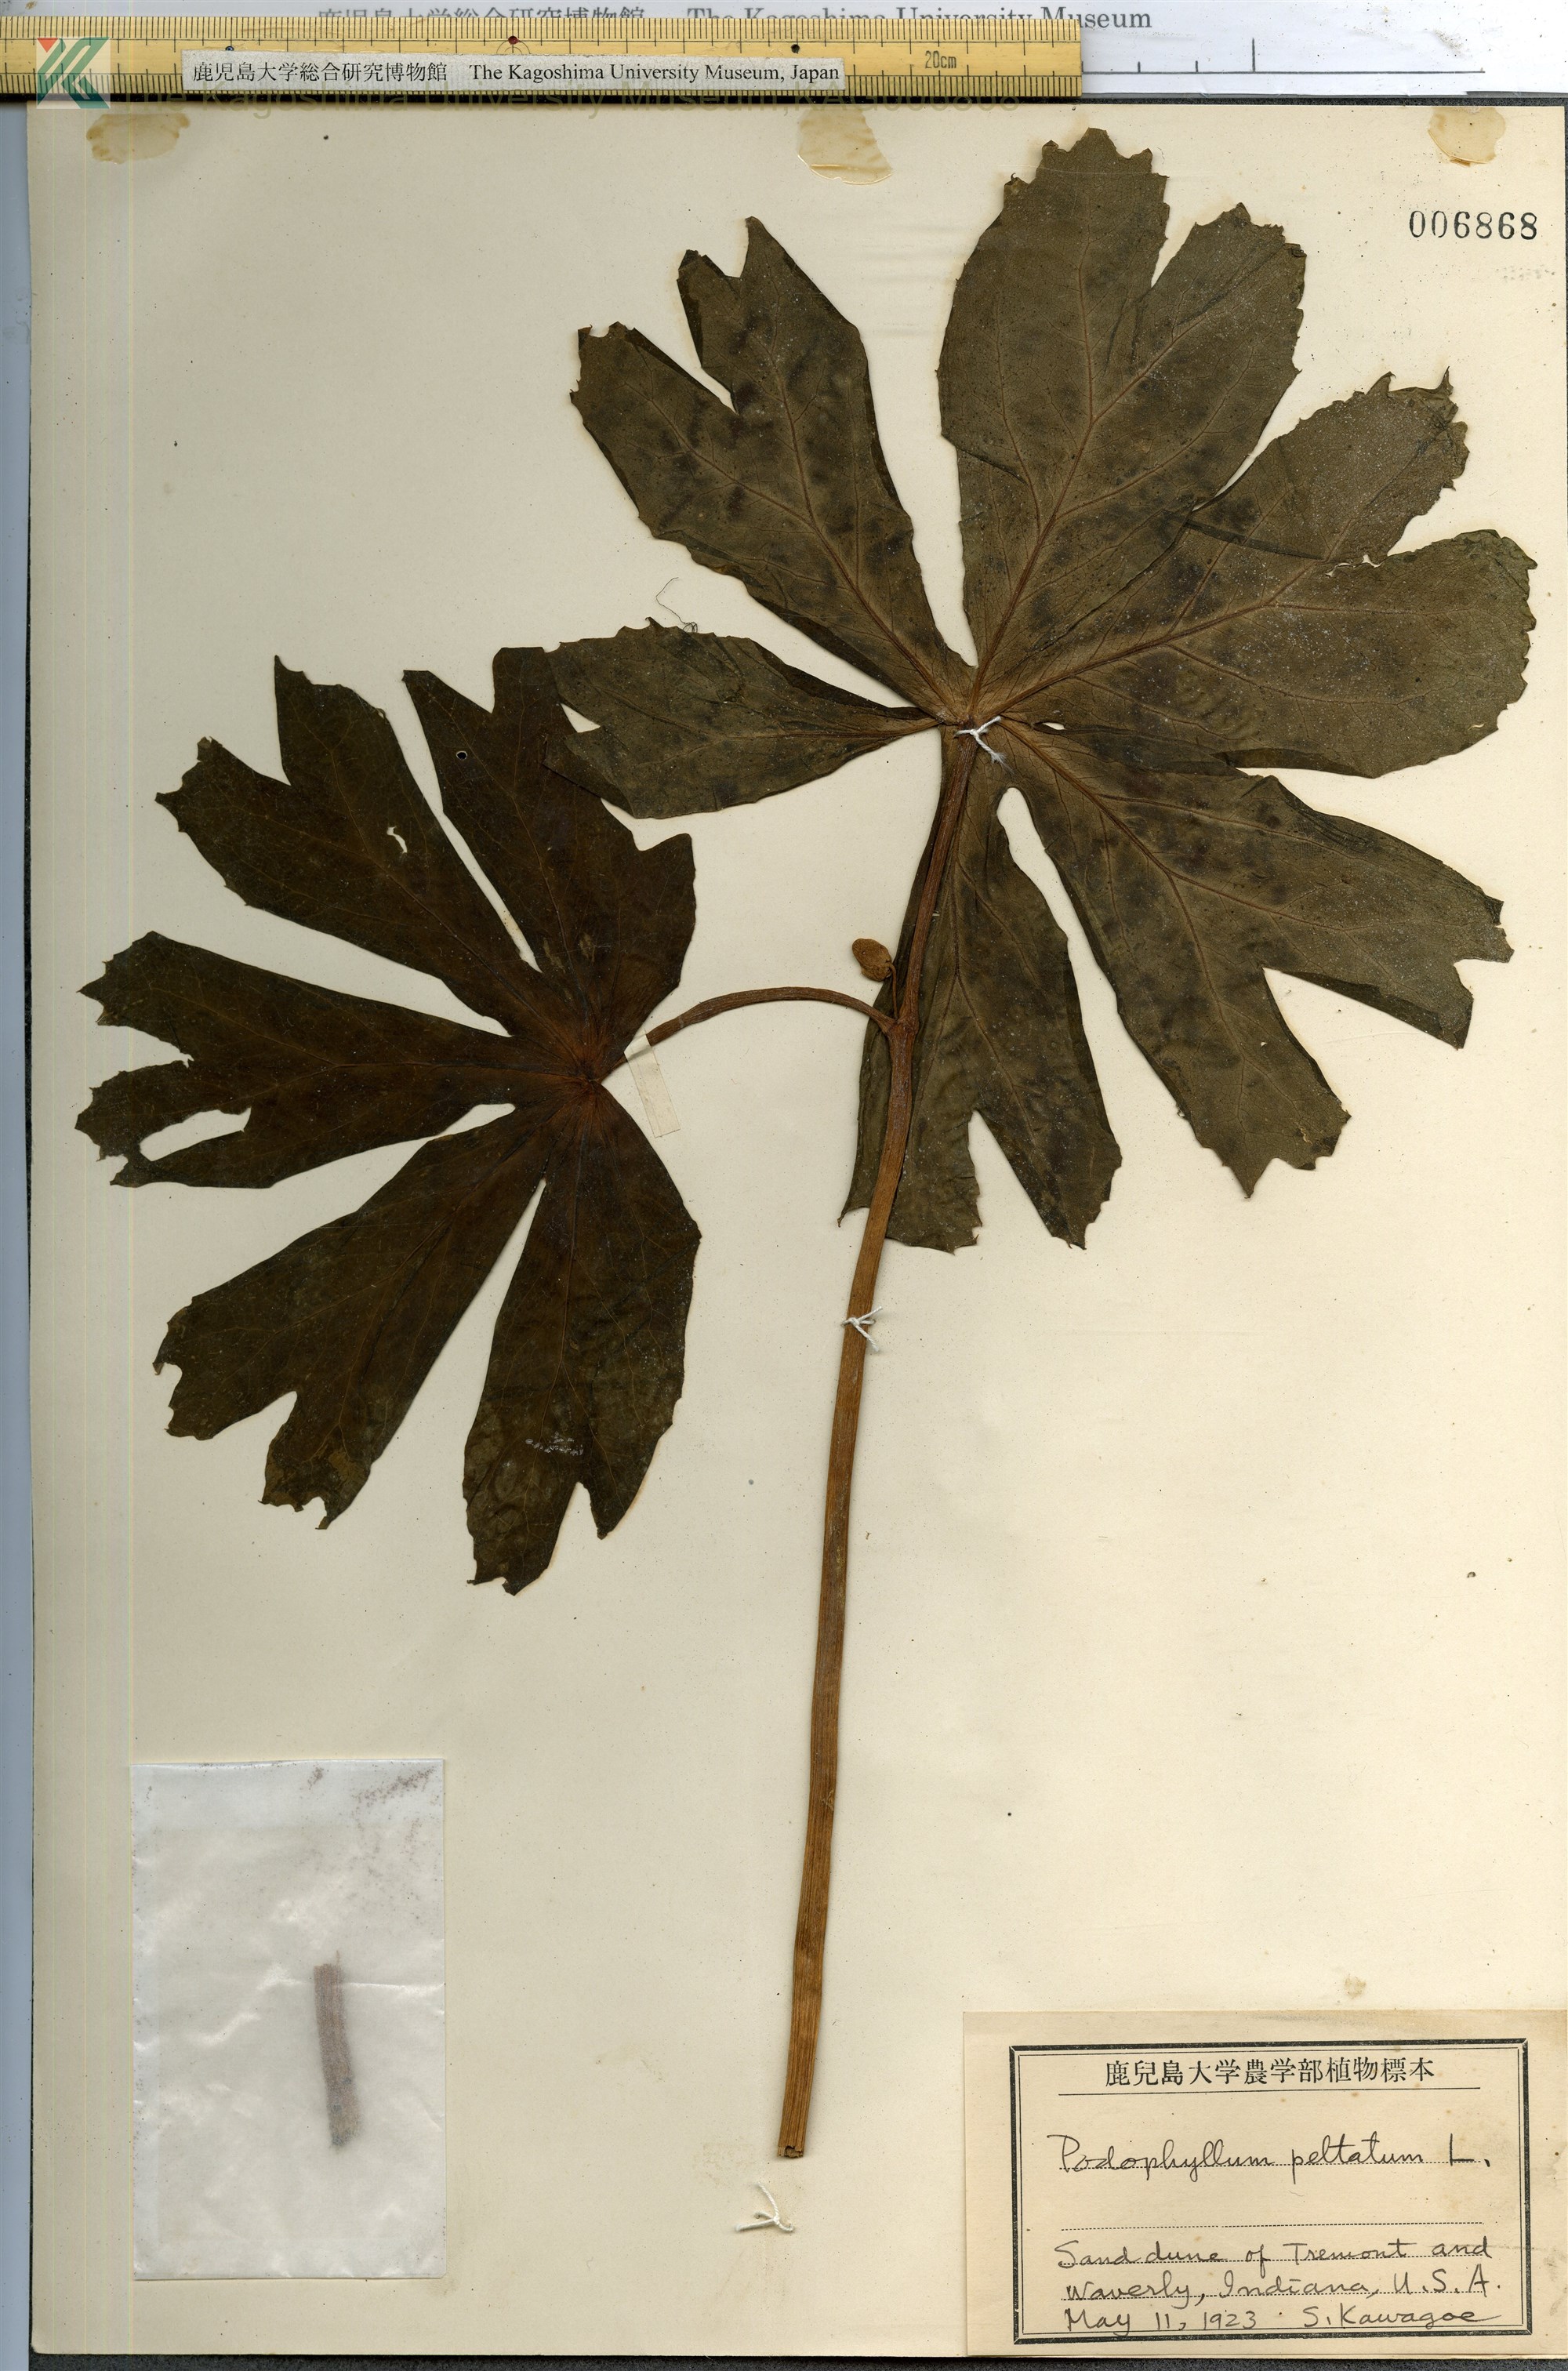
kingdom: Plantae
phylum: Tracheophyta
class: Magnoliopsida
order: Ranunculales
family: Berberidaceae
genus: Podophyllum
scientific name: Podophyllum peltatum
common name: Wild mandrake
